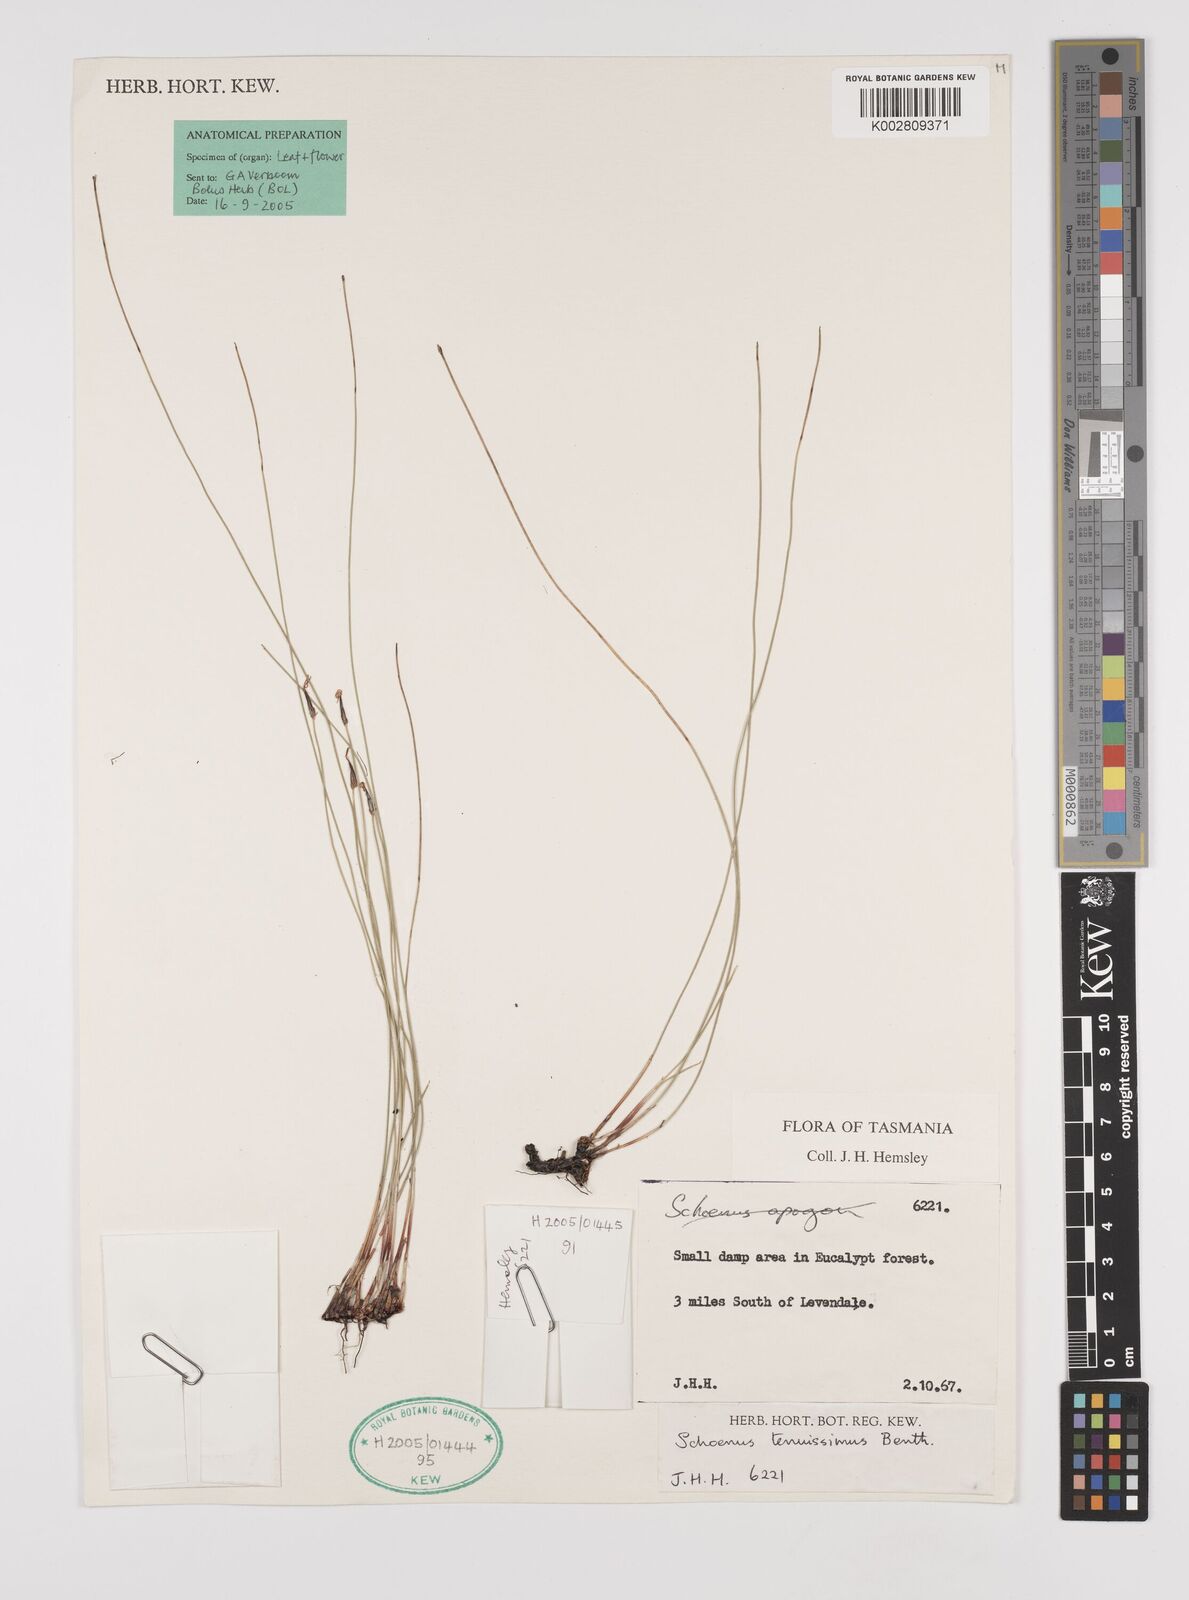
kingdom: Plantae
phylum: Tracheophyta
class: Liliopsida
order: Poales
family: Cyperaceae
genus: Schoenus
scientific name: Schoenus tenuissimus
